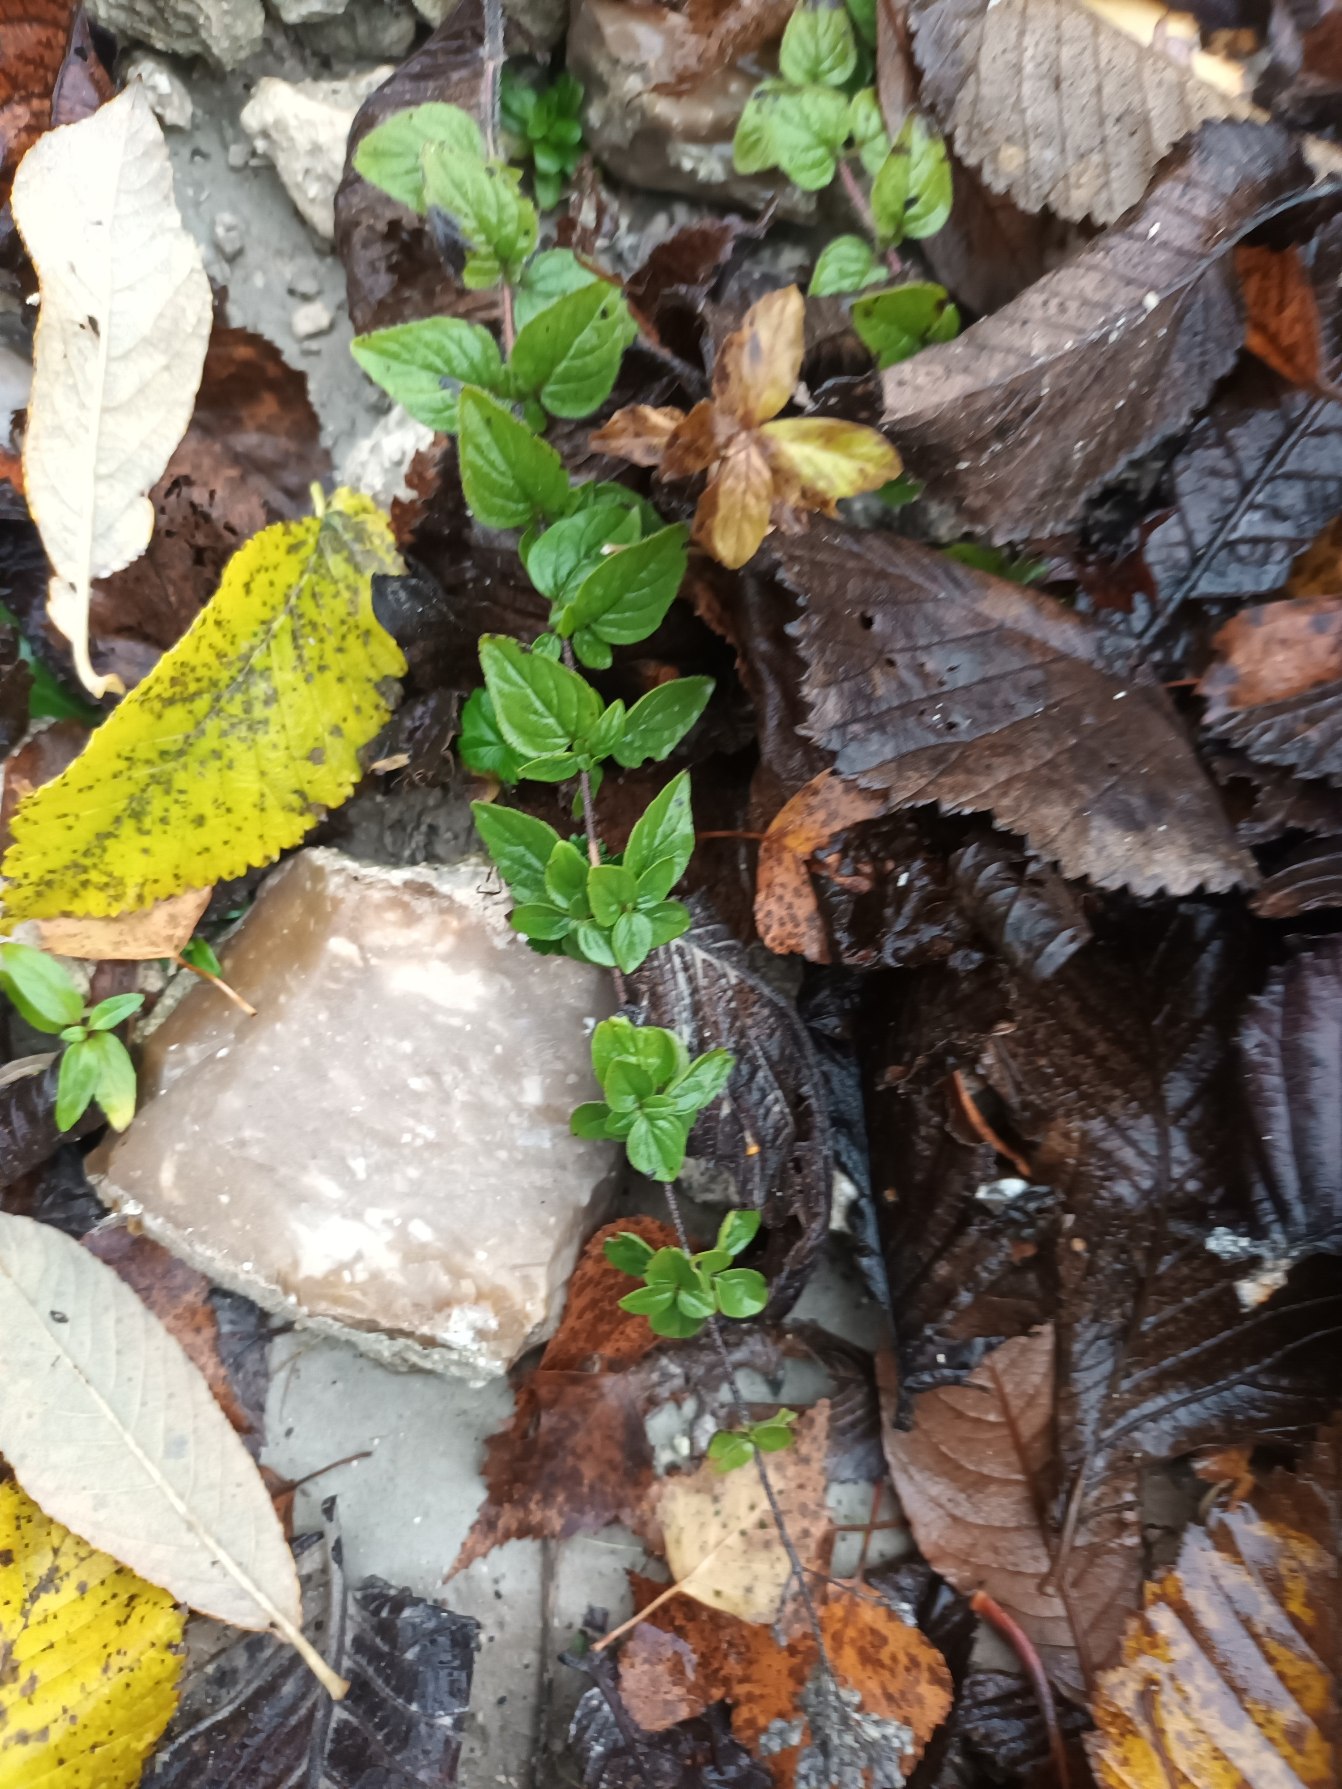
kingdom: Plantae
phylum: Tracheophyta
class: Magnoliopsida
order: Lamiales
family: Lamiaceae
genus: Origanum
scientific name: Origanum vulgare
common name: Merian
